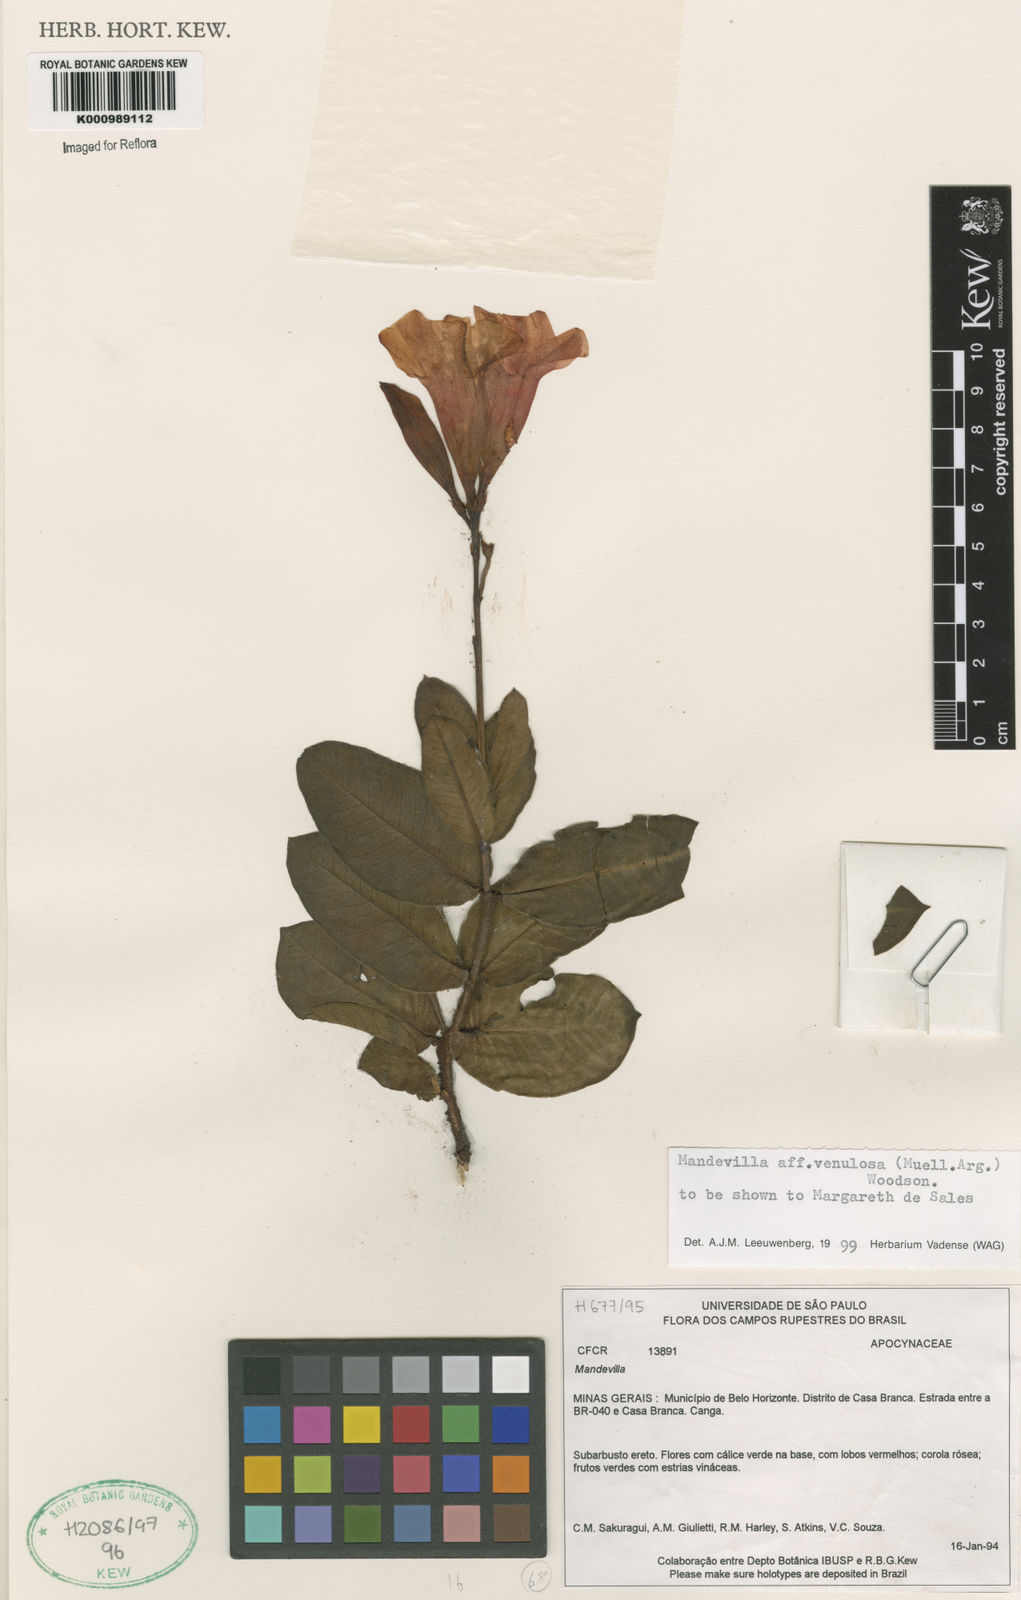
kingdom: Plantae
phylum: Tracheophyta
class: Magnoliopsida
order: Gentianales
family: Apocynaceae
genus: Mandevilla
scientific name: Mandevilla
